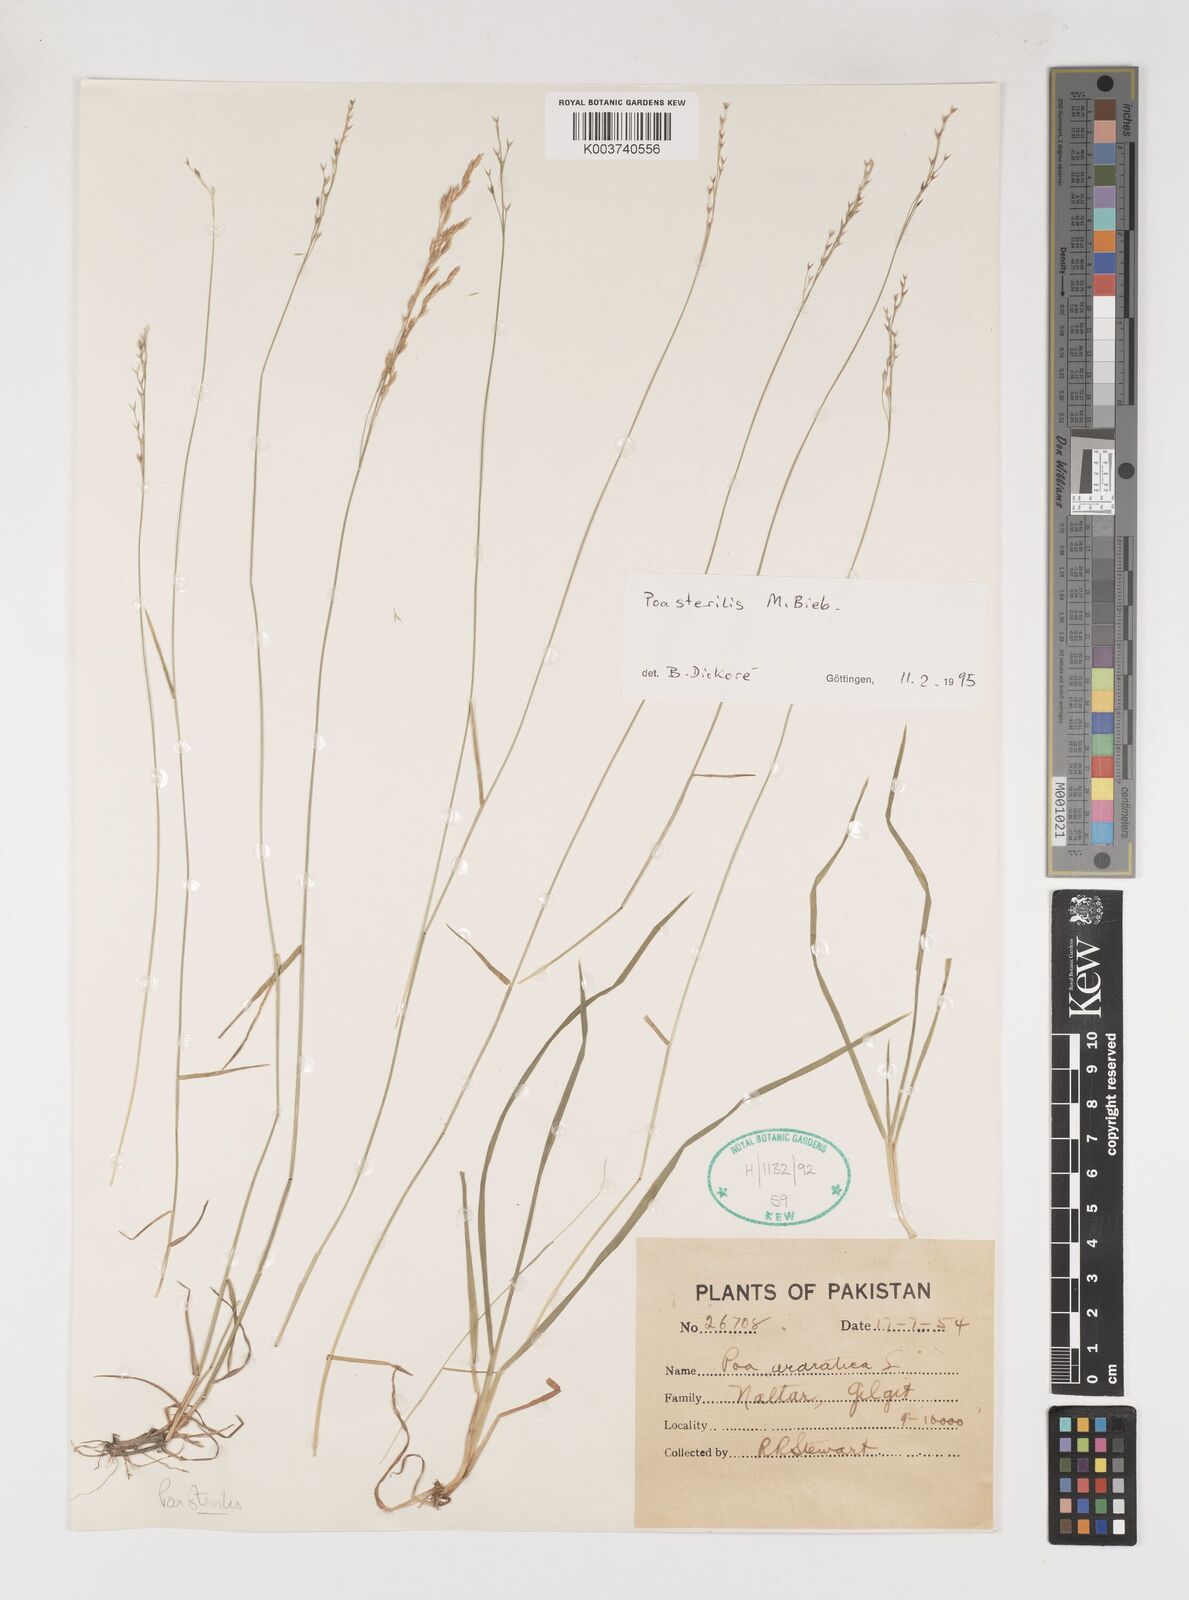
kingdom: Plantae
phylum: Tracheophyta
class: Liliopsida
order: Poales
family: Poaceae
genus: Poa
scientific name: Poa sterilis
